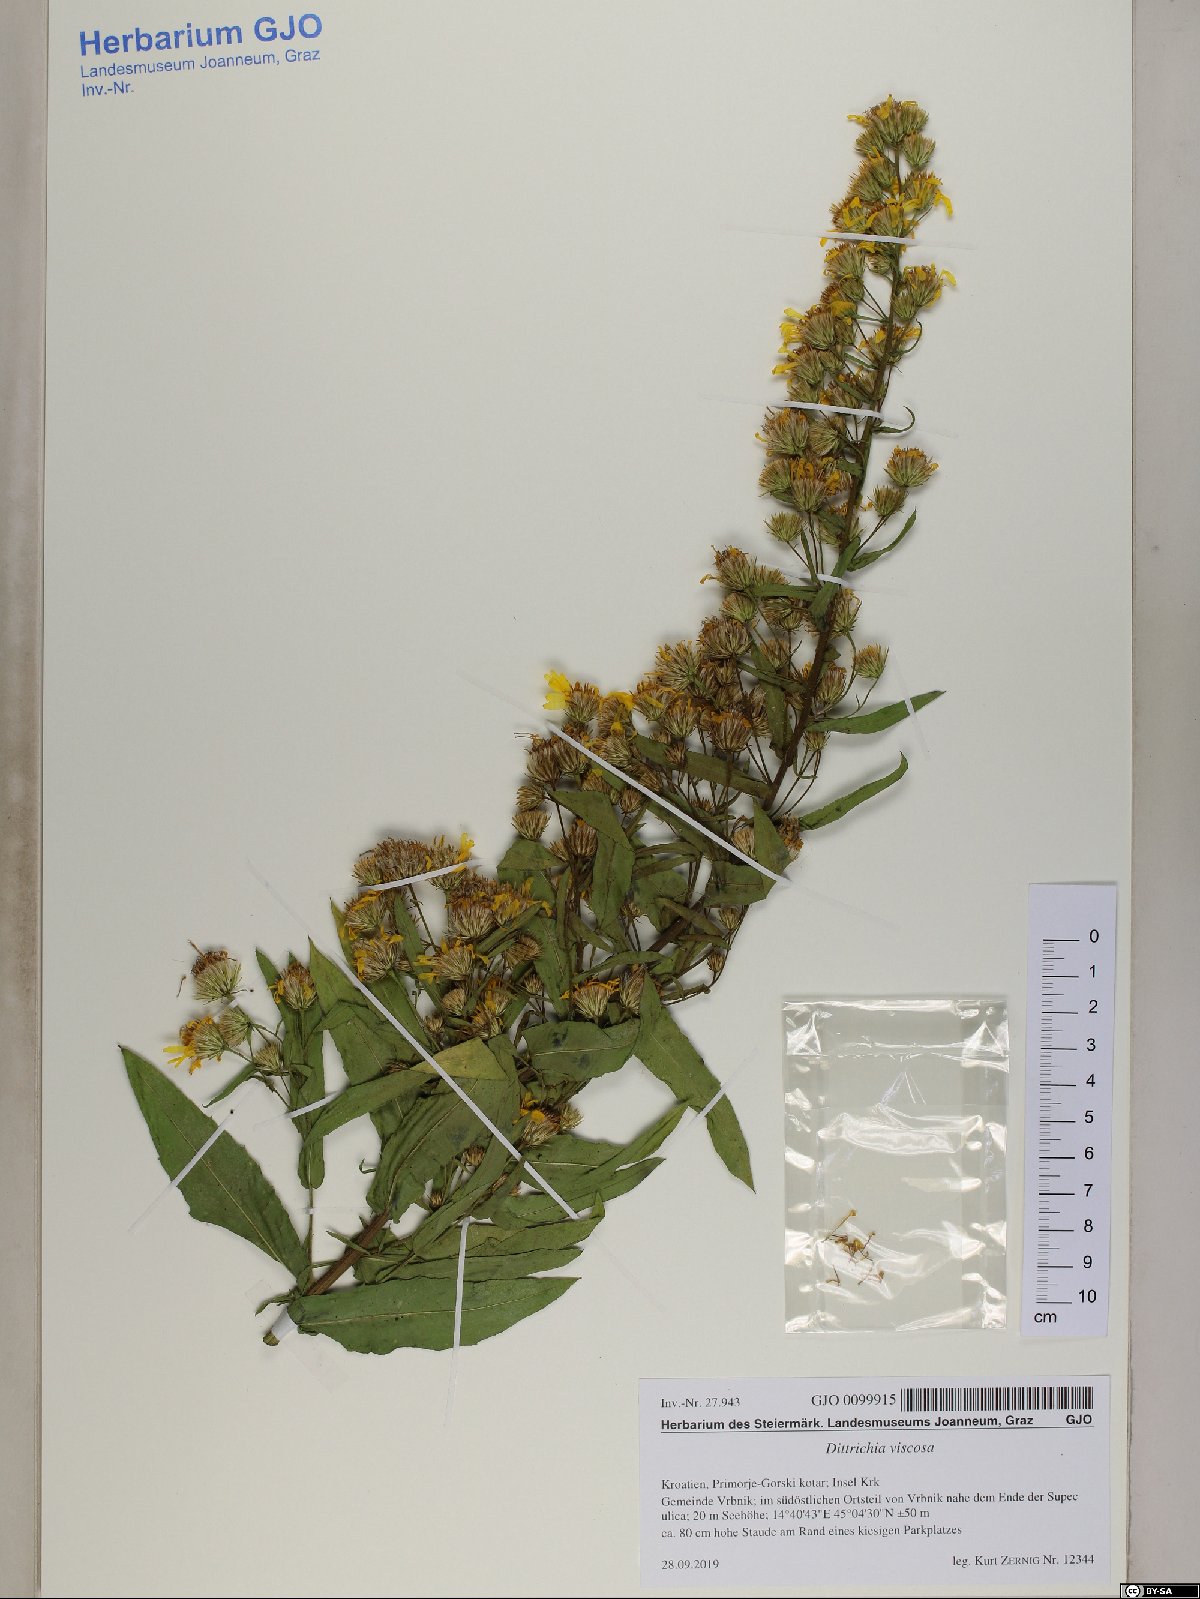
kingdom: Plantae
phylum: Tracheophyta
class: Magnoliopsida
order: Asterales
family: Asteraceae
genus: Dittrichia
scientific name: Dittrichia viscosa
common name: Woody fleabane
